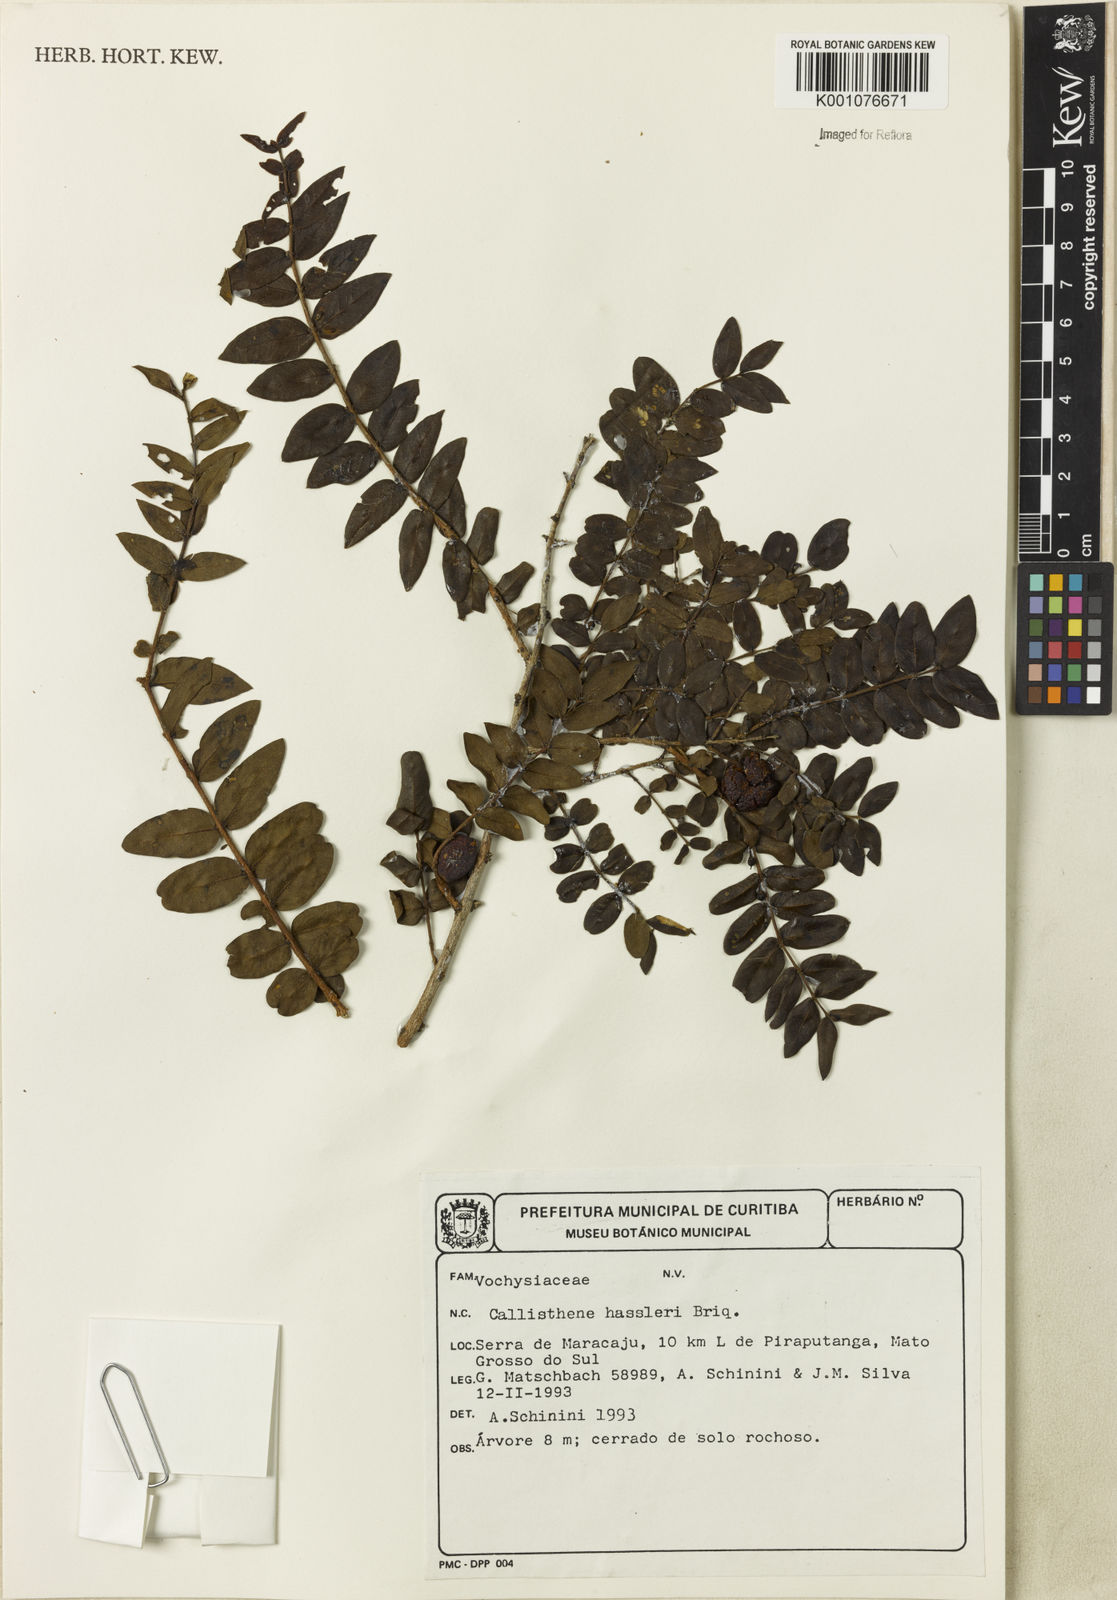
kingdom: Plantae
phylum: Tracheophyta
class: Magnoliopsida
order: Myrtales
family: Vochysiaceae
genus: Callisthene
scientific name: Callisthene hassleri
